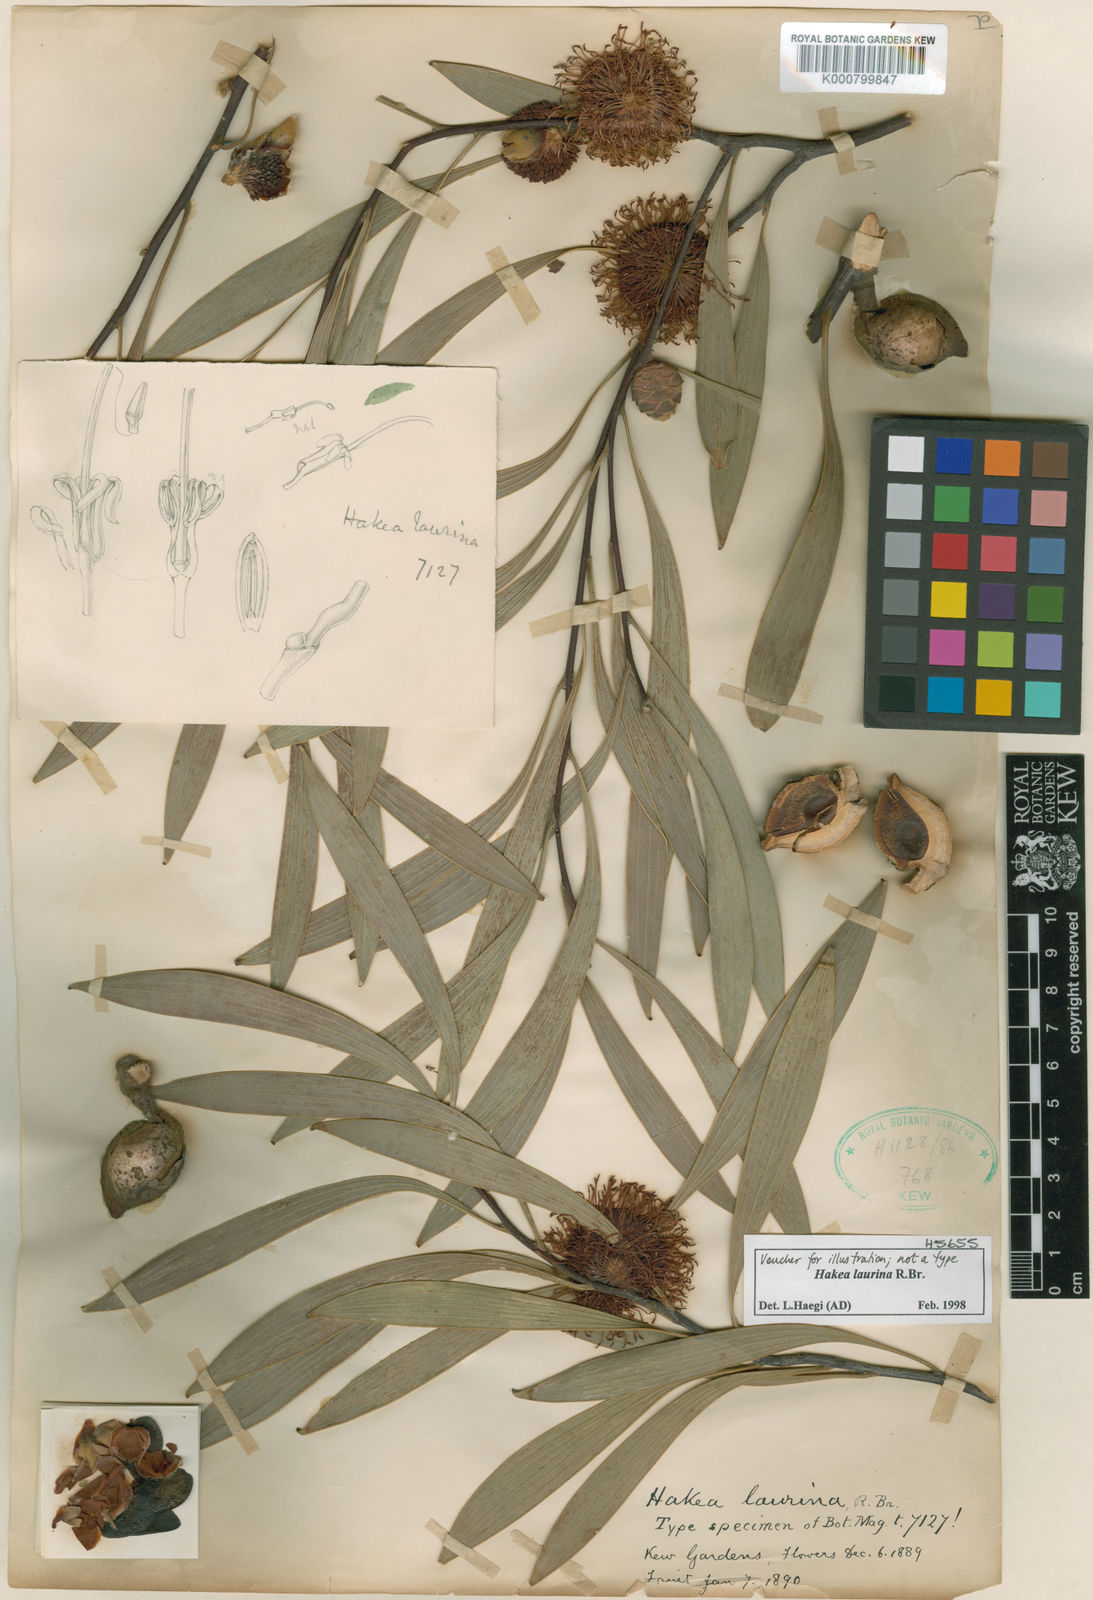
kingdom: Plantae
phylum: Tracheophyta
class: Magnoliopsida
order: Proteales
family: Proteaceae
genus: Hakea
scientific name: Hakea laurina
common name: Cushion hakea
